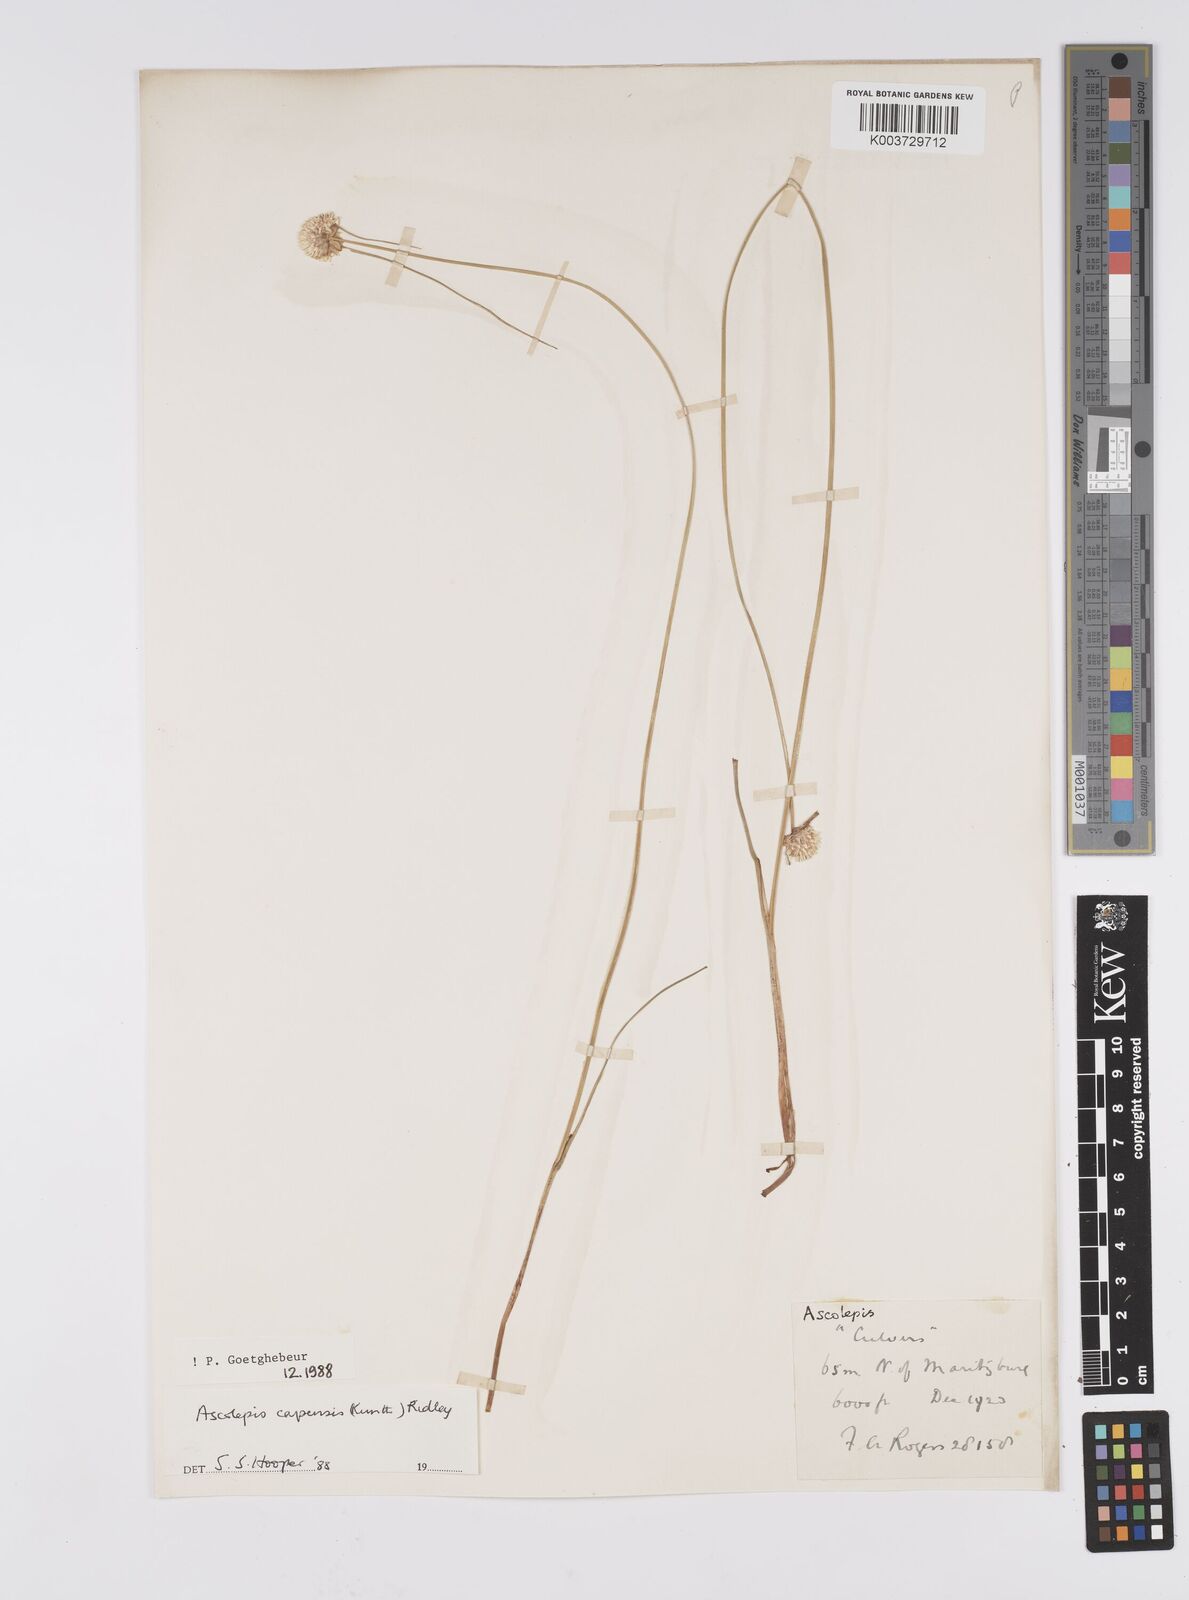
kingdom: Plantae
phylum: Tracheophyta
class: Liliopsida
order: Poales
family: Cyperaceae
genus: Cyperus
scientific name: Cyperus capensis
